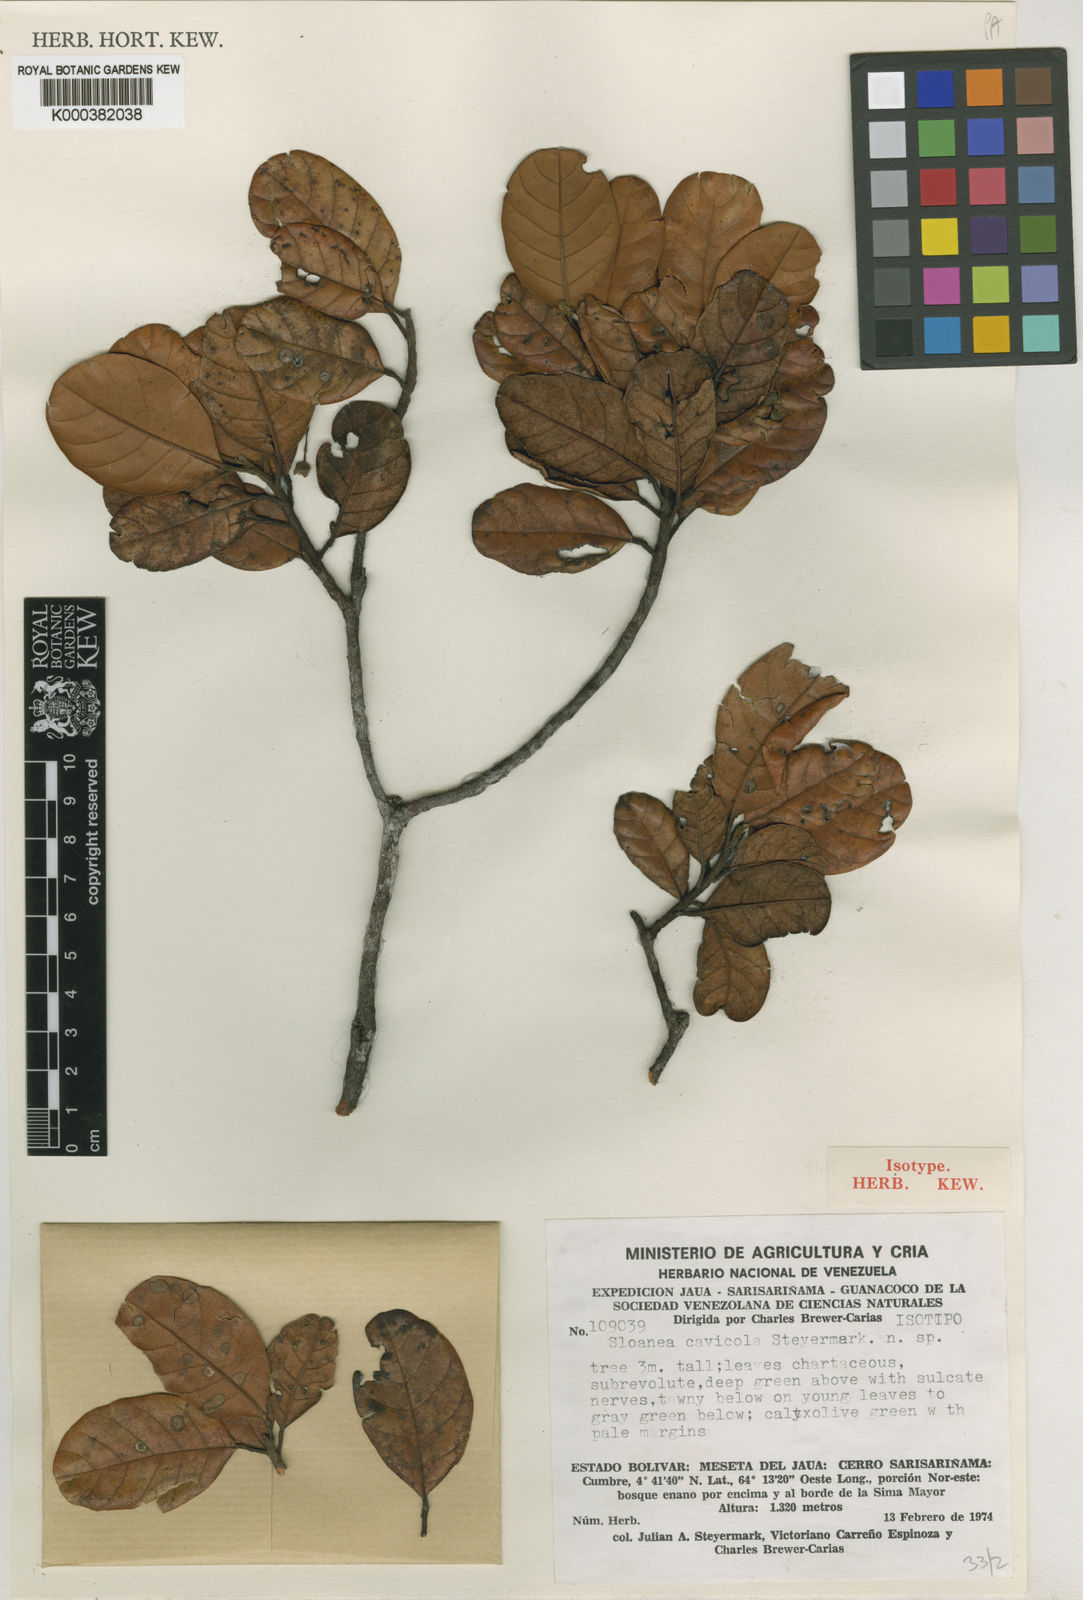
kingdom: Plantae
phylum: Tracheophyta
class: Magnoliopsida
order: Oxalidales
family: Elaeocarpaceae
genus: Sloanea
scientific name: Sloanea cavicola
